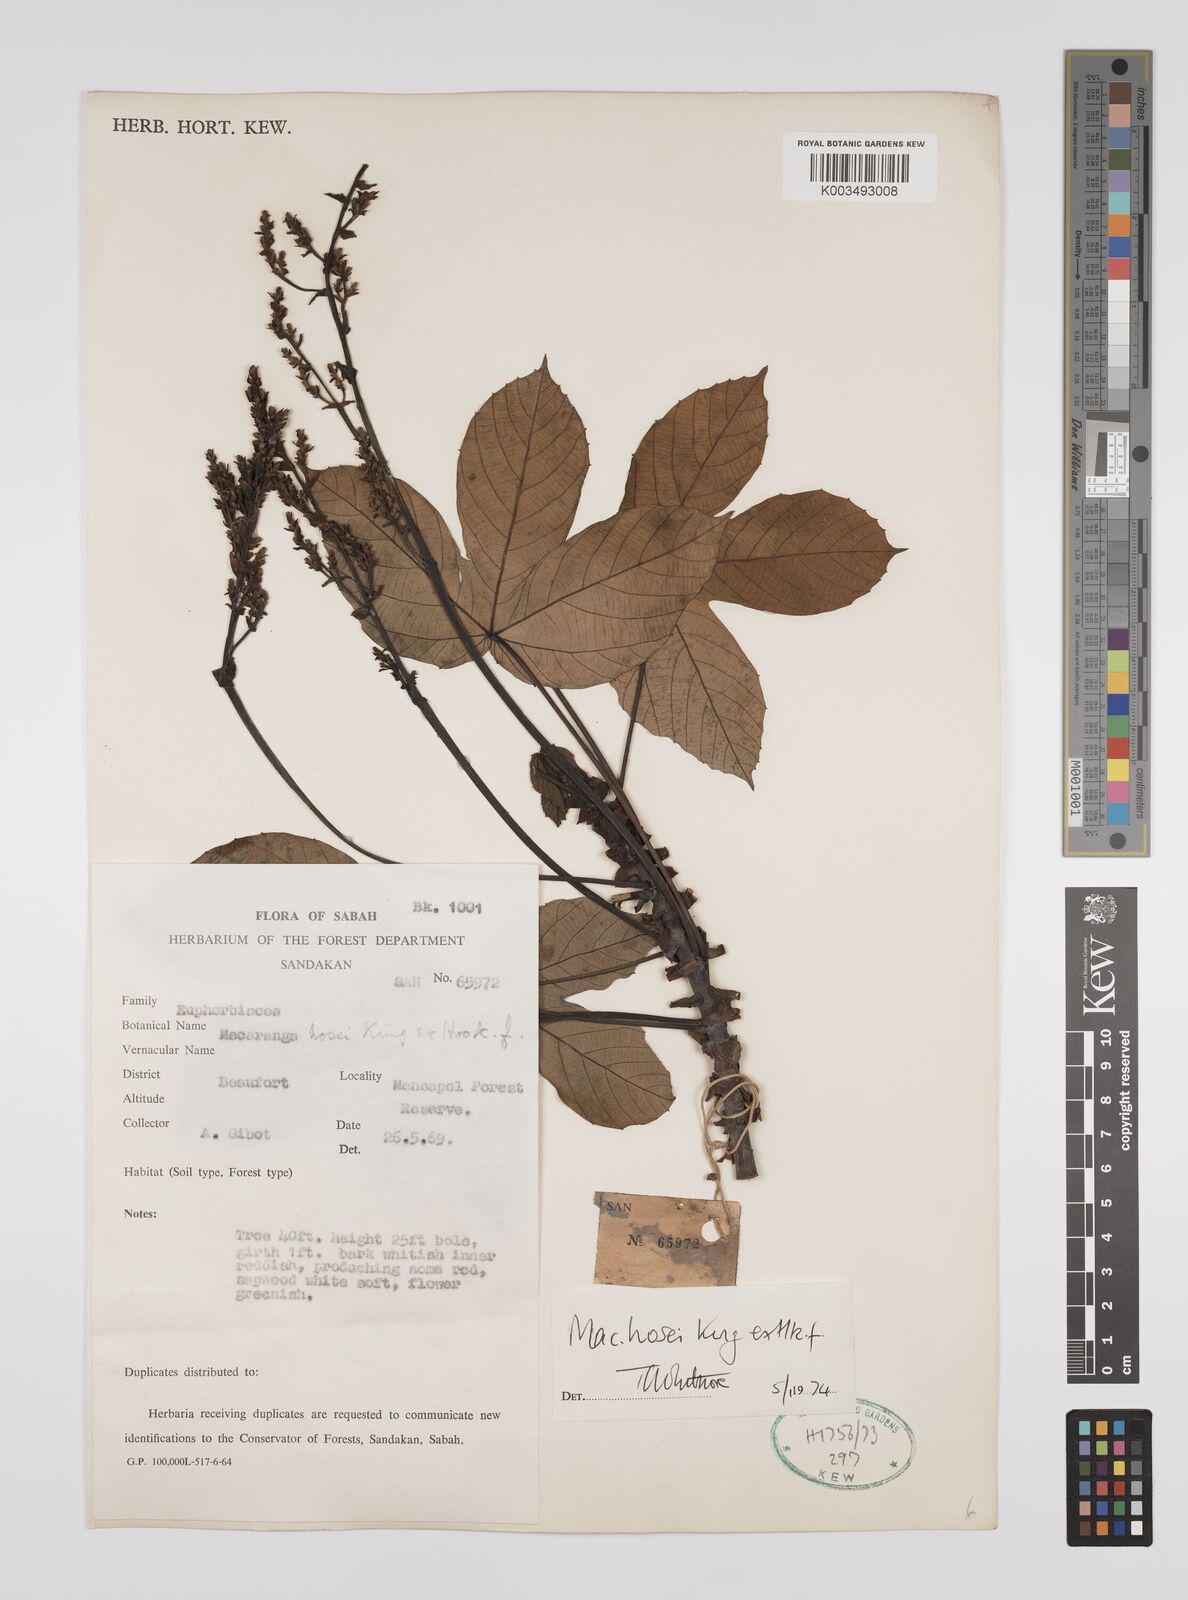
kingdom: Plantae
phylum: Tracheophyta
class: Magnoliopsida
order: Malpighiales
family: Euphorbiaceae
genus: Macaranga
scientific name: Macaranga hosei
